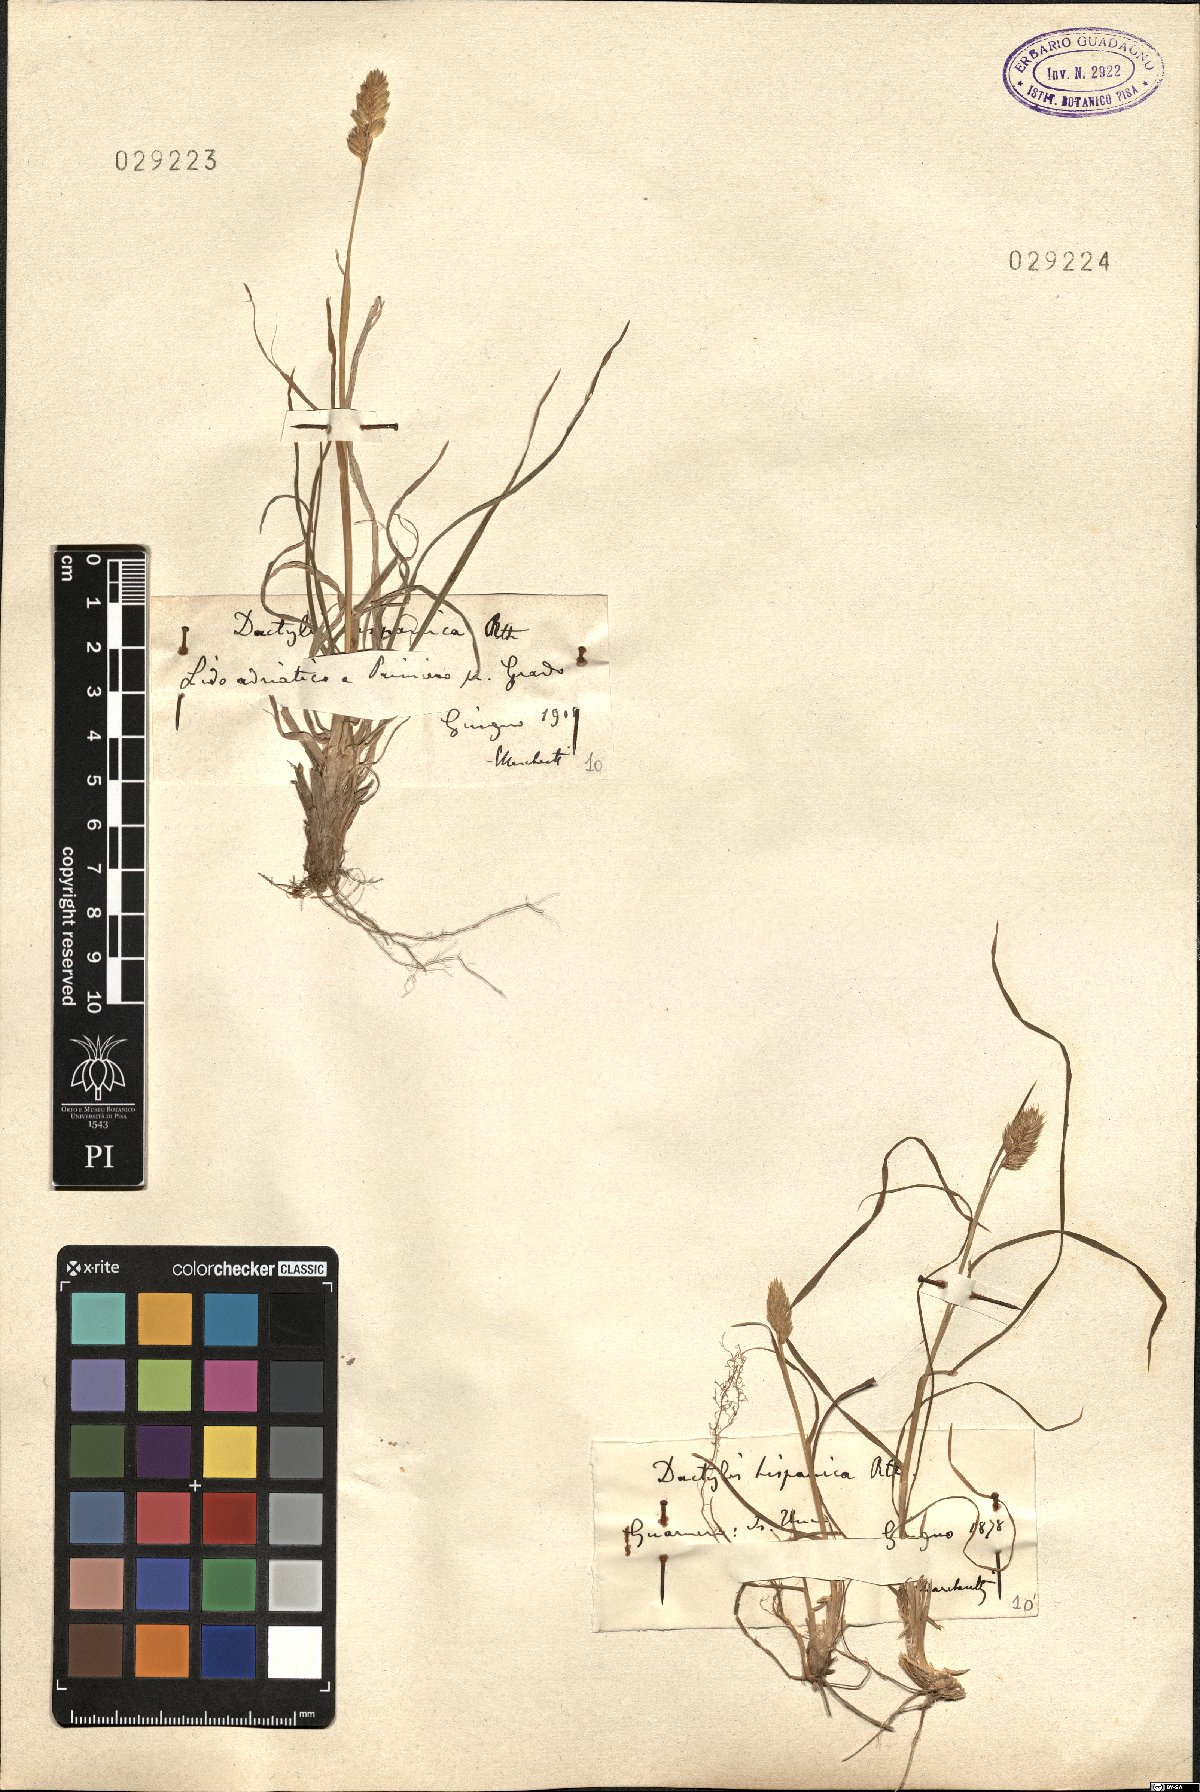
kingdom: Plantae
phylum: Tracheophyta
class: Liliopsida
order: Poales
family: Poaceae
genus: Dactylis
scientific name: Dactylis glomerata
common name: Orchardgrass
